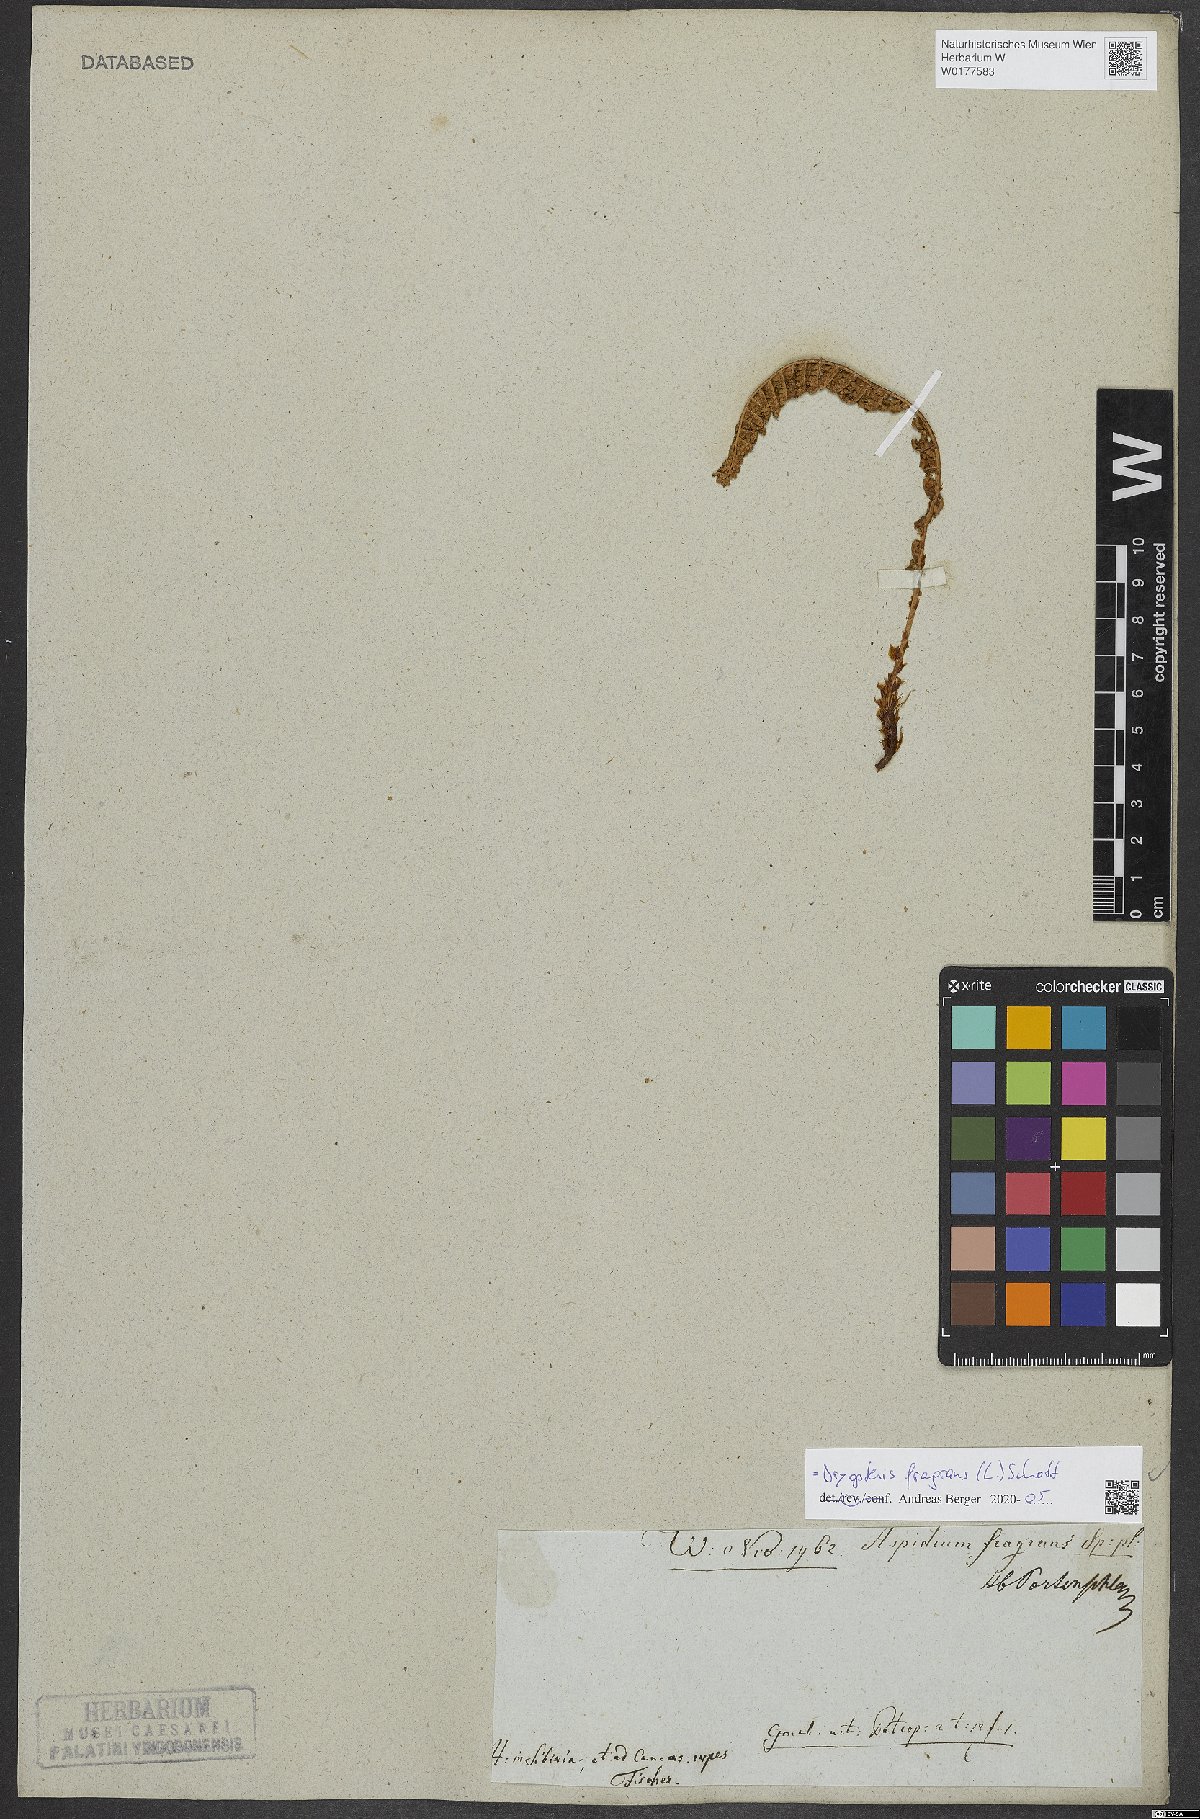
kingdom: Plantae
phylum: Tracheophyta
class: Polypodiopsida
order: Polypodiales
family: Dryopteridaceae
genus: Dryopteris
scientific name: Dryopteris fragrans
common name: Fragrant wood fern
